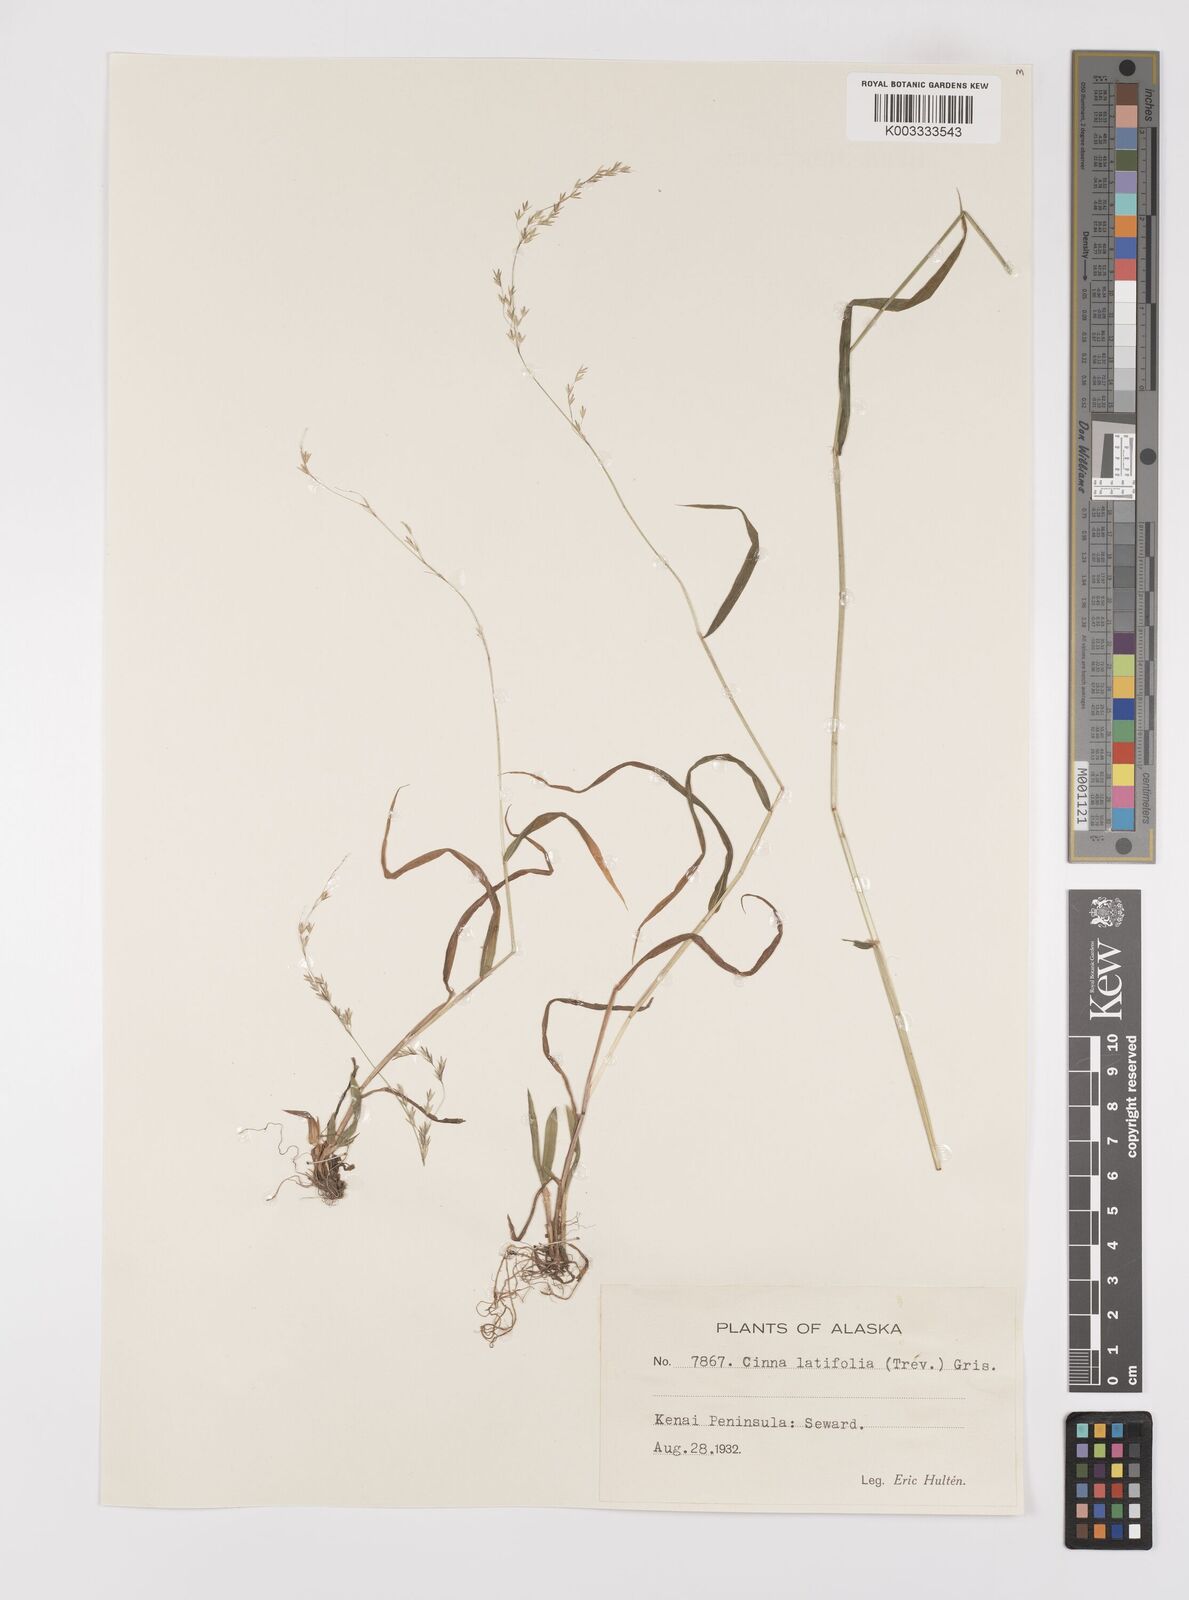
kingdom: Plantae
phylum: Tracheophyta
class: Liliopsida
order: Poales
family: Poaceae
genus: Cinna
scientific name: Cinna latifolia
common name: Drooping woodreed
